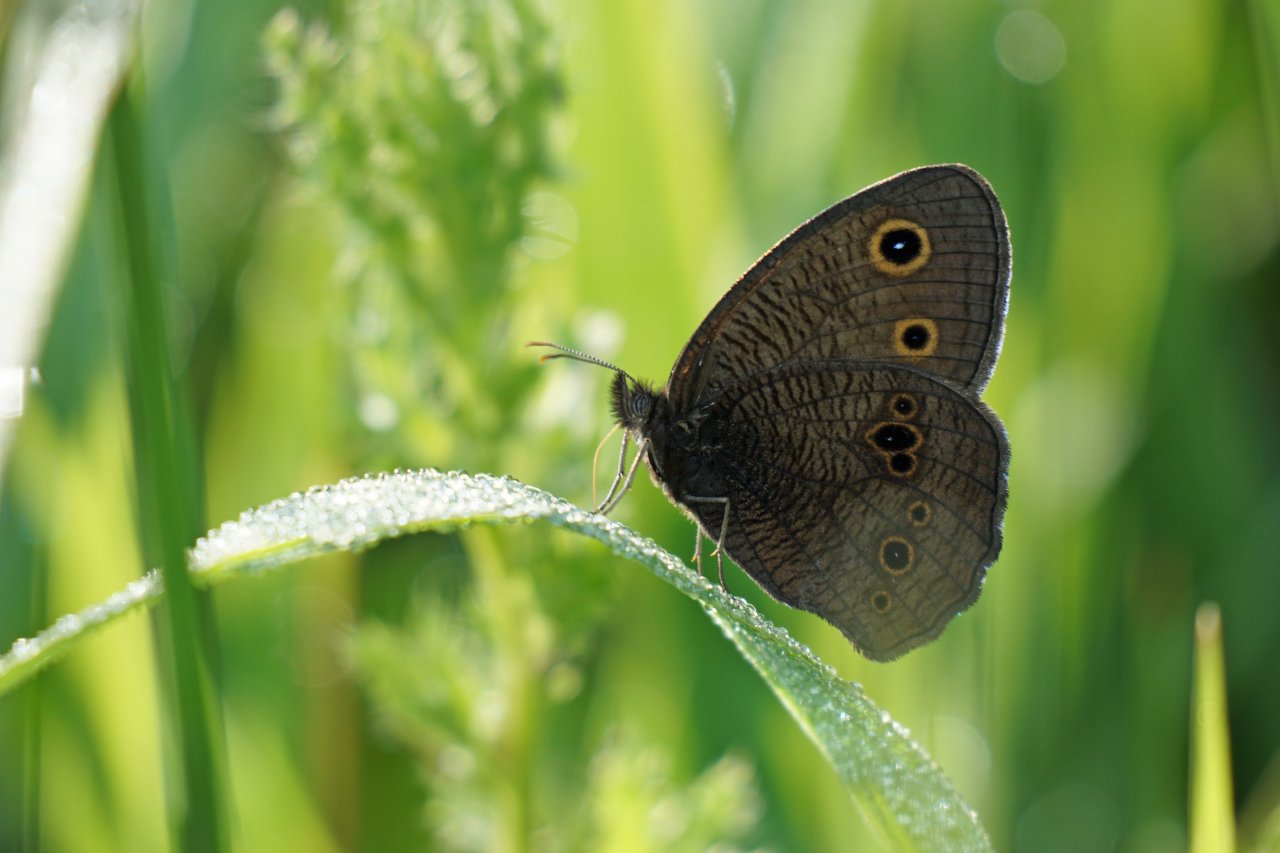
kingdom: Animalia
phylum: Arthropoda
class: Insecta
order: Lepidoptera
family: Nymphalidae
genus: Cercyonis
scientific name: Cercyonis pegala
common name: Common Wood-Nymph
